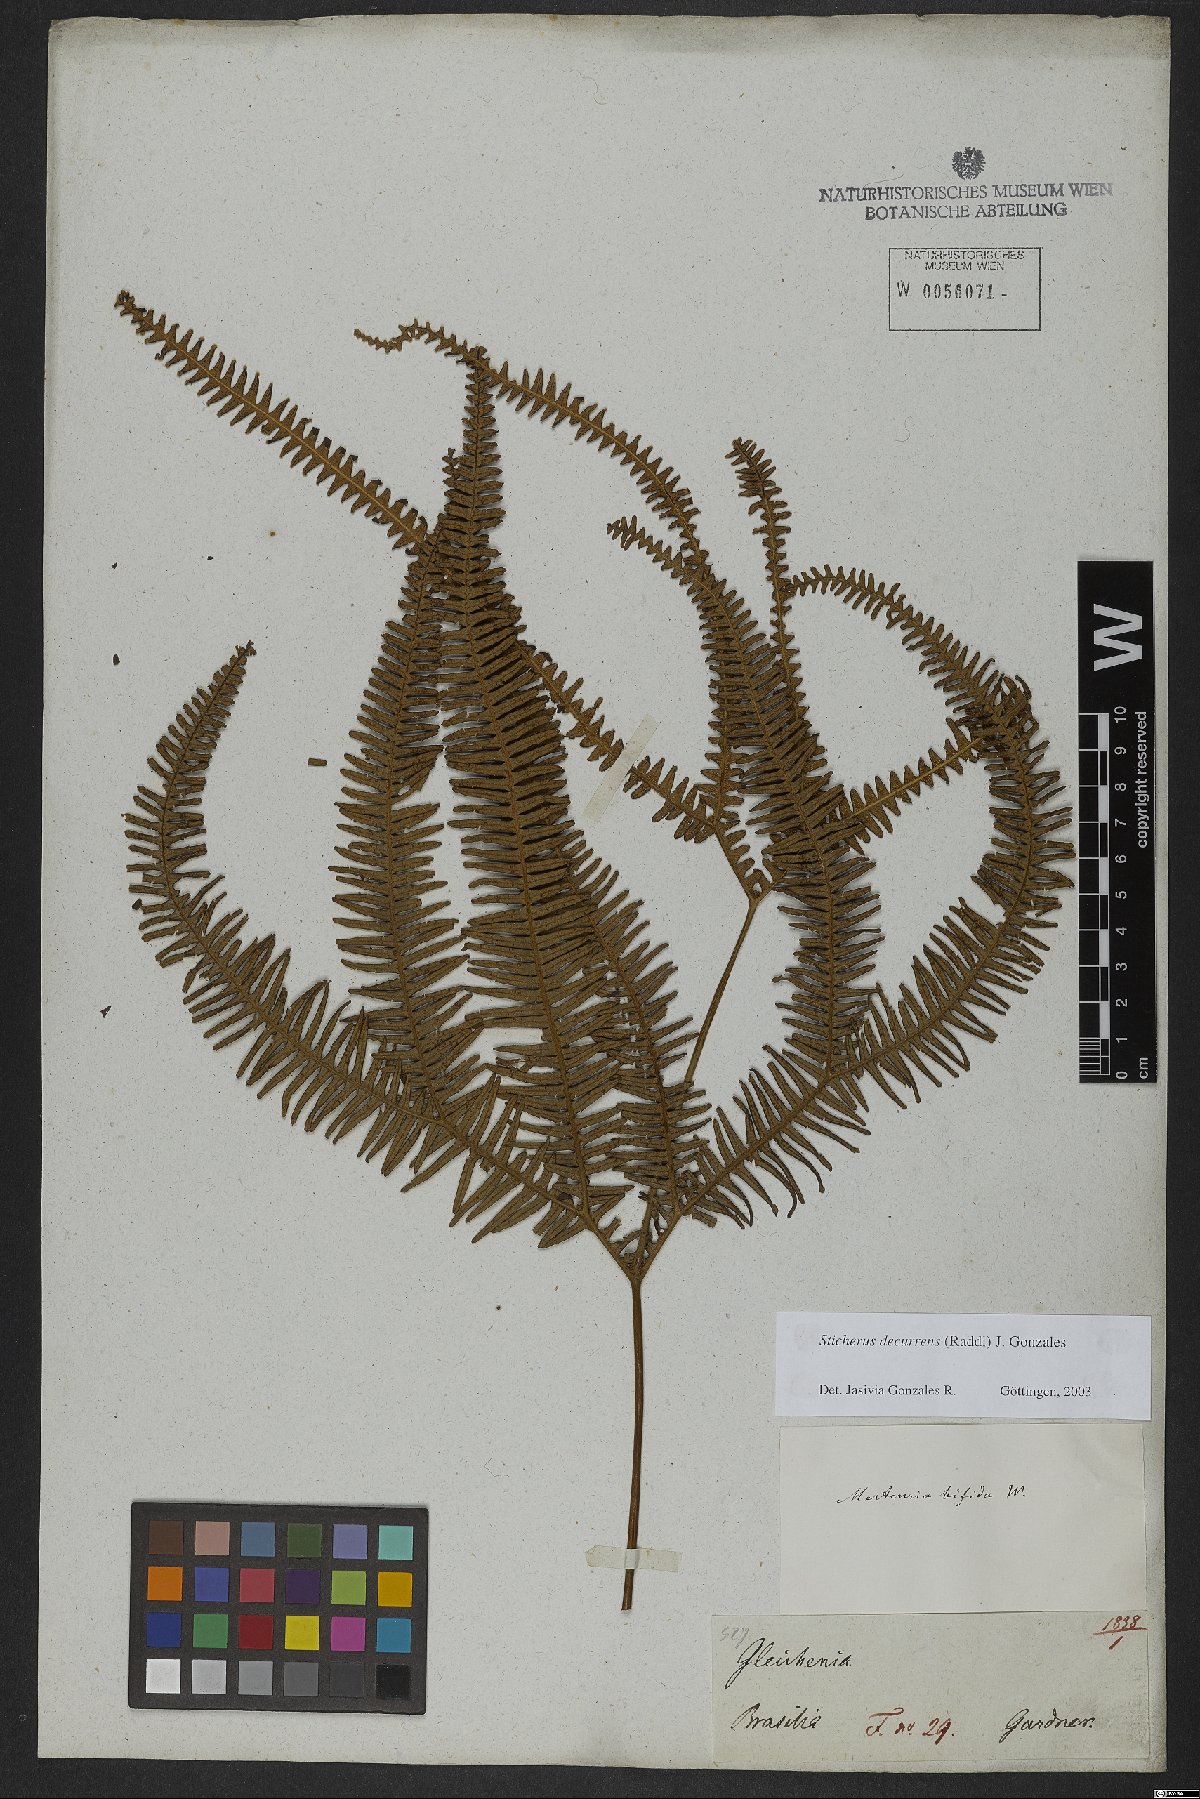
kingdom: Plantae
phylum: Tracheophyta
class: Polypodiopsida
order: Gleicheniales
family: Gleicheniaceae
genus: Sticherus
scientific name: Sticherus decurrens
